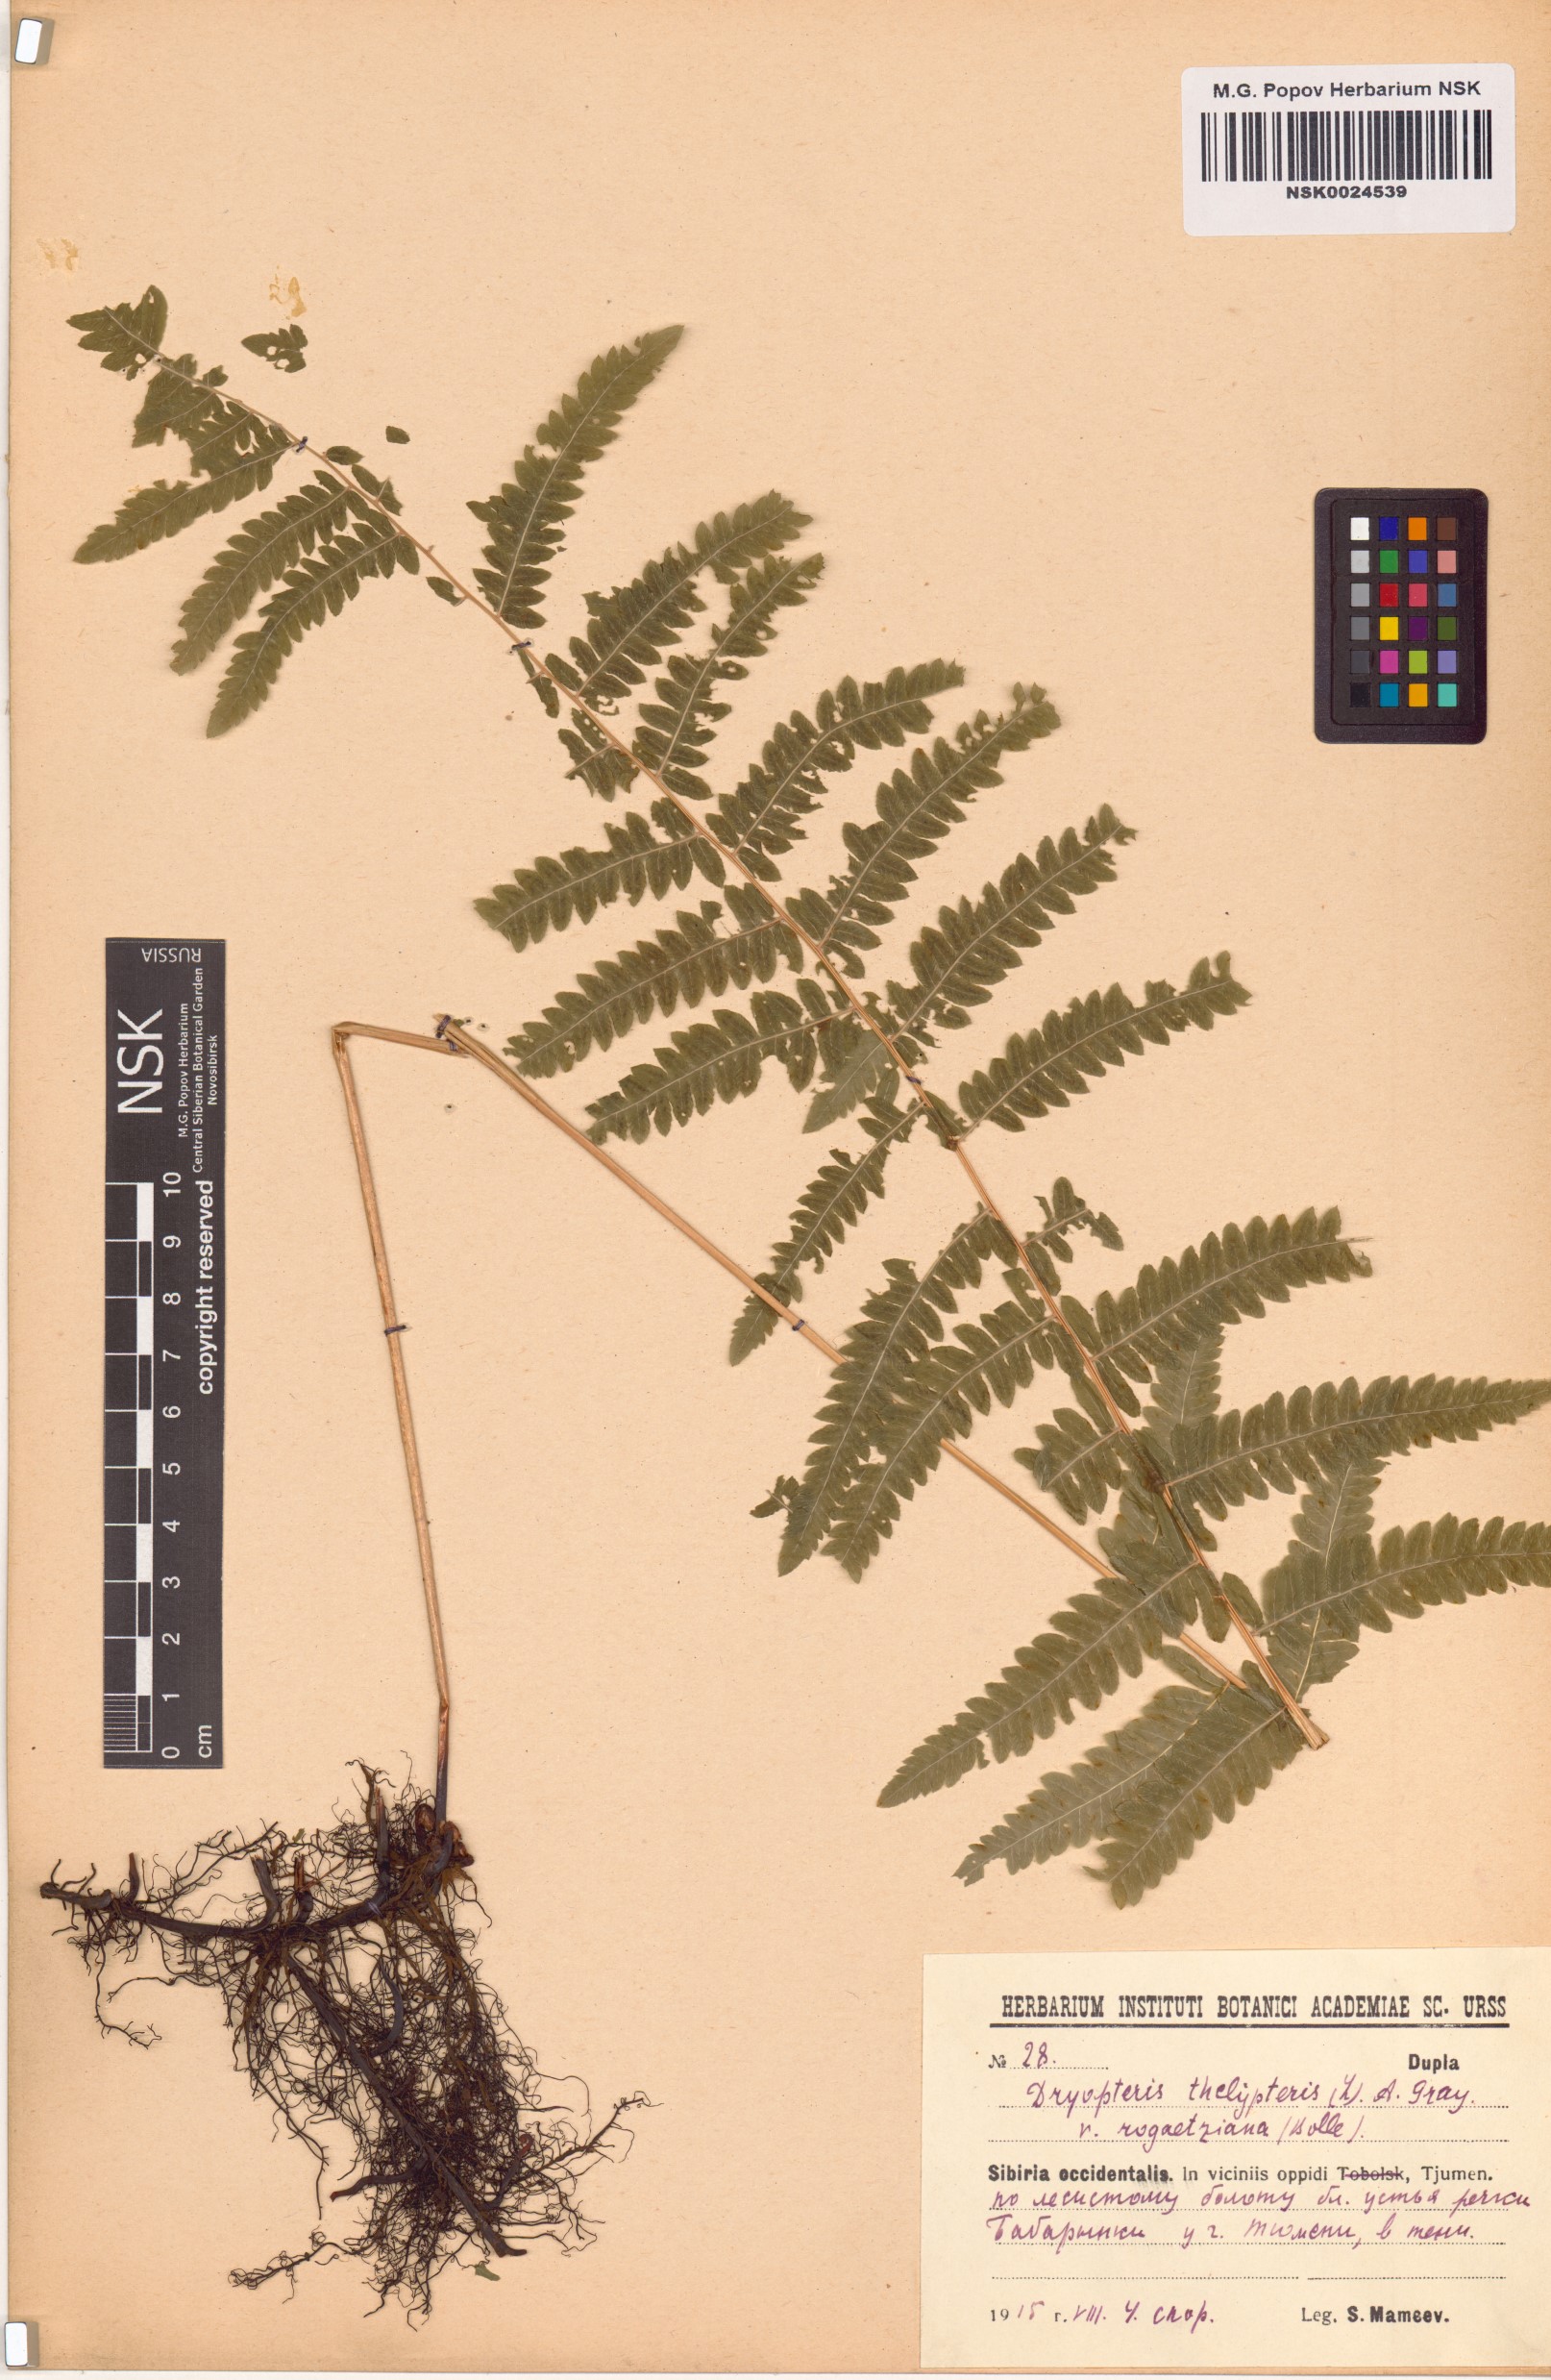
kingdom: Plantae
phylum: Tracheophyta
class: Polypodiopsida
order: Polypodiales
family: Thelypteridaceae
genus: Thelypteris
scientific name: Thelypteris palustris
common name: Marsh fern
